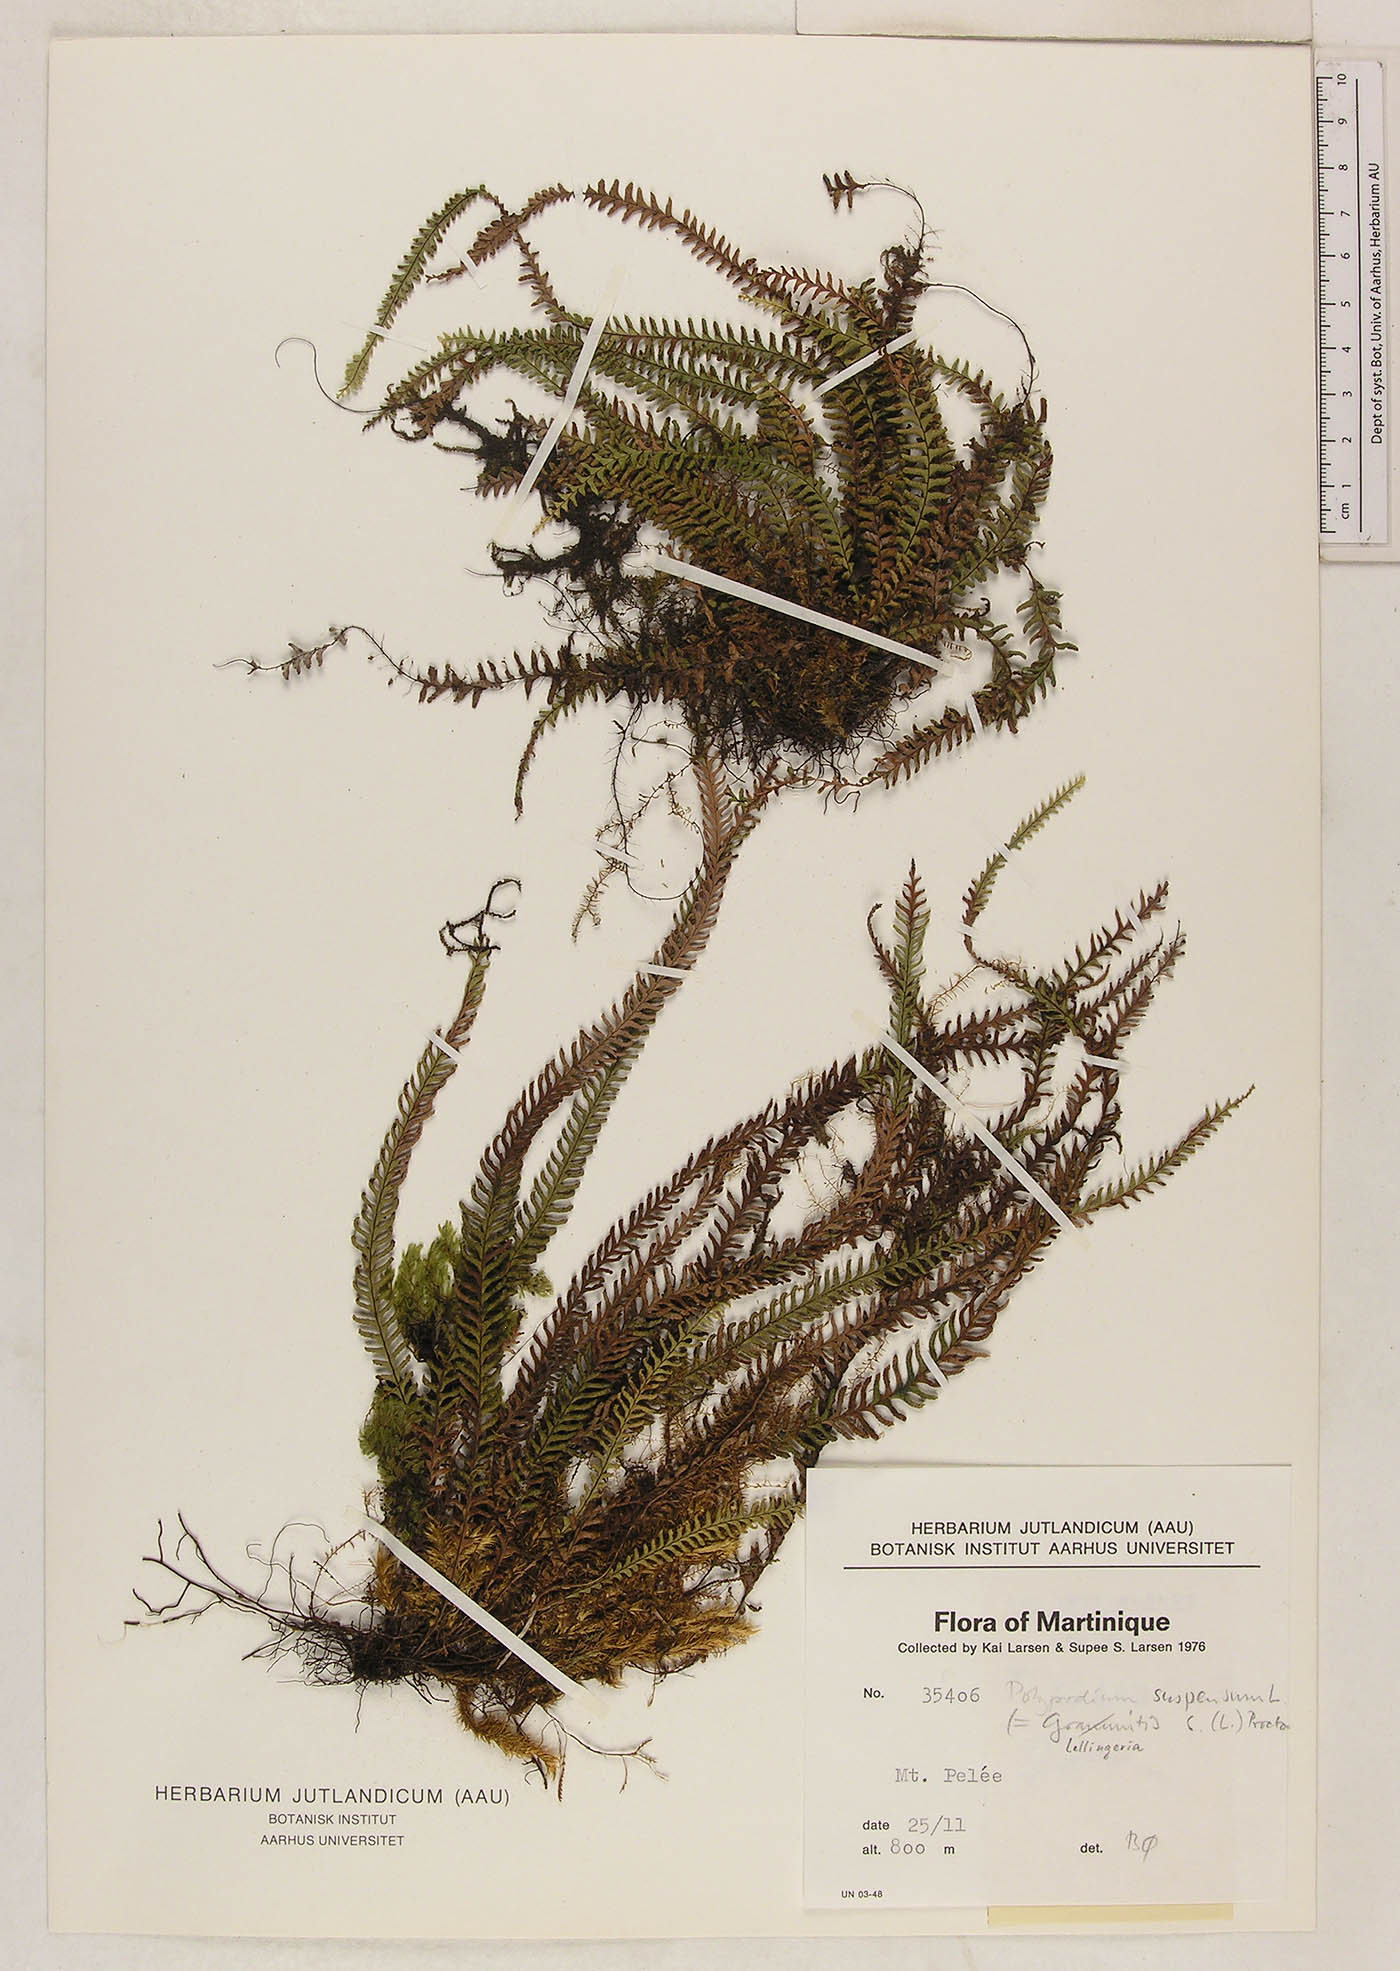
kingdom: Plantae
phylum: Tracheophyta
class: Polypodiopsida
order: Polypodiales
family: Polypodiaceae
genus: Lellingeria
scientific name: Lellingeria suspensa
